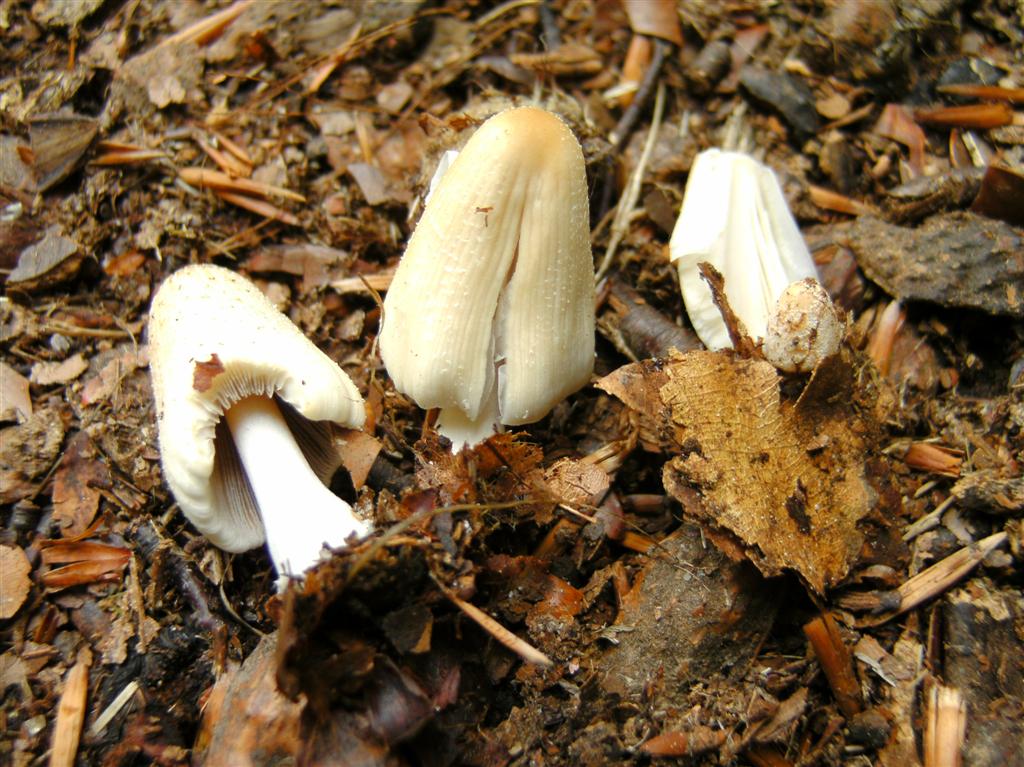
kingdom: Fungi
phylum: Basidiomycota
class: Agaricomycetes
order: Agaricales
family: Psathyrellaceae
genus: Coprinellus
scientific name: Coprinellus domesticus
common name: hus-blækhat
